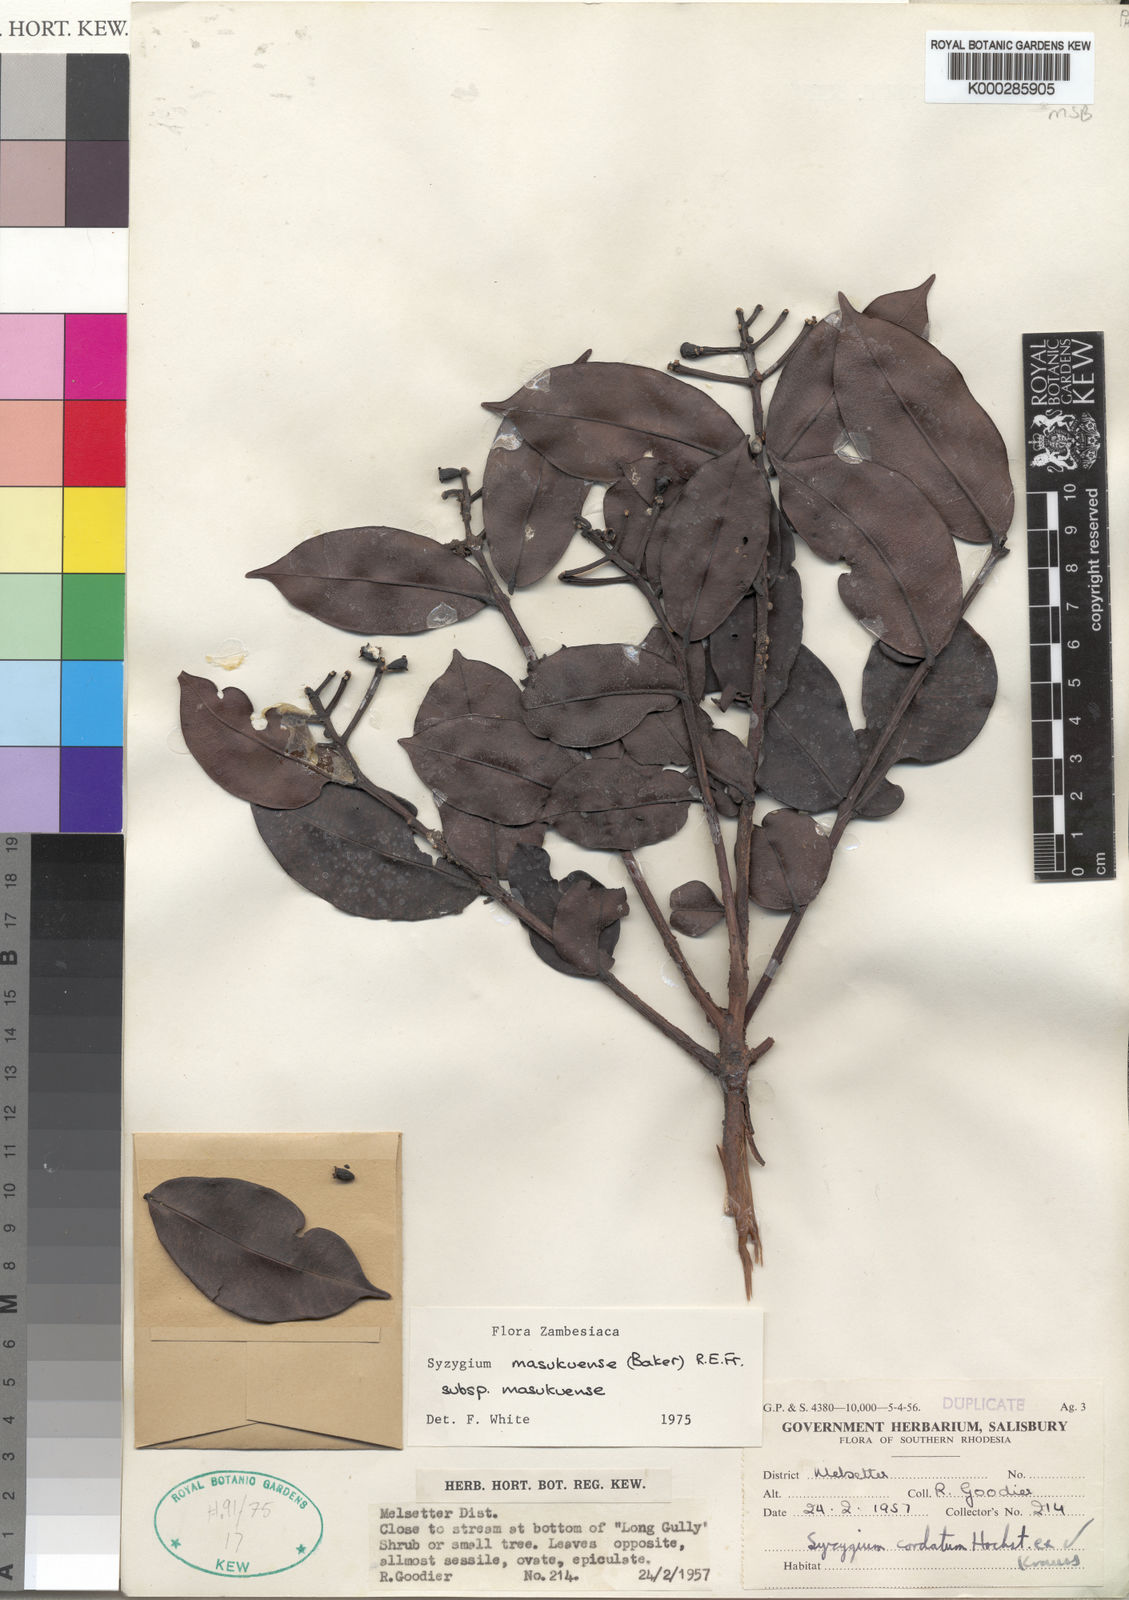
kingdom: Plantae
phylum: Tracheophyta
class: Magnoliopsida
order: Myrtales
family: Myrtaceae
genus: Syzygium
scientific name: Syzygium masukuense
